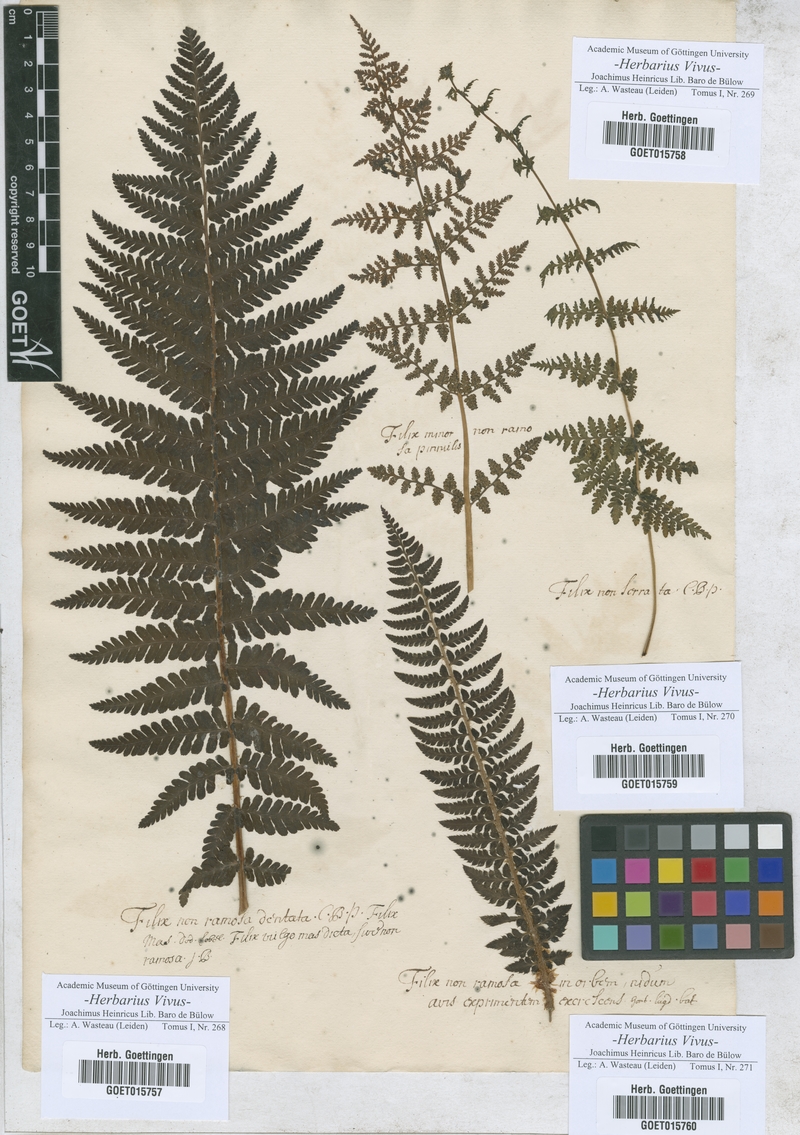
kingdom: Plantae
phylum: Tracheophyta
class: Polypodiopsida
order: Polypodiales
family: Dryopteridaceae
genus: Dryopteris
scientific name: Dryopteris filix-mas
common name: Male fern
